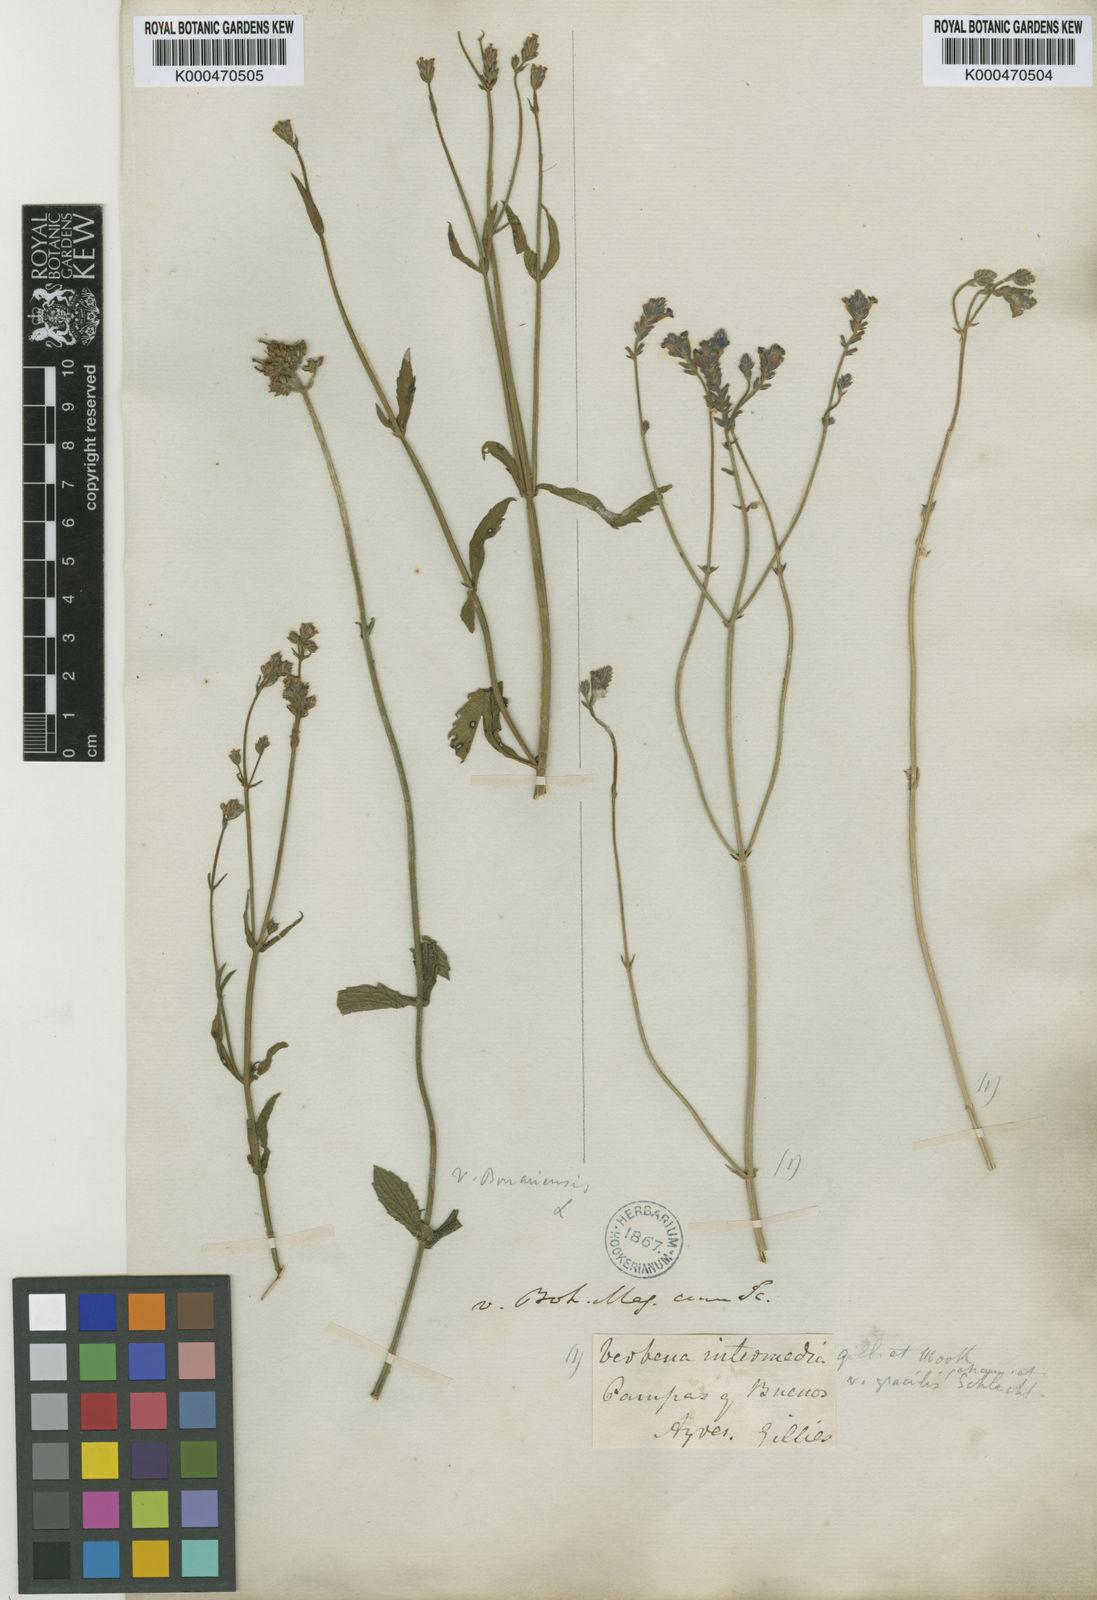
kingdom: Plantae
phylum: Tracheophyta
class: Magnoliopsida
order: Lamiales
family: Verbenaceae
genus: Verbena
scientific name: Verbena intermedia
